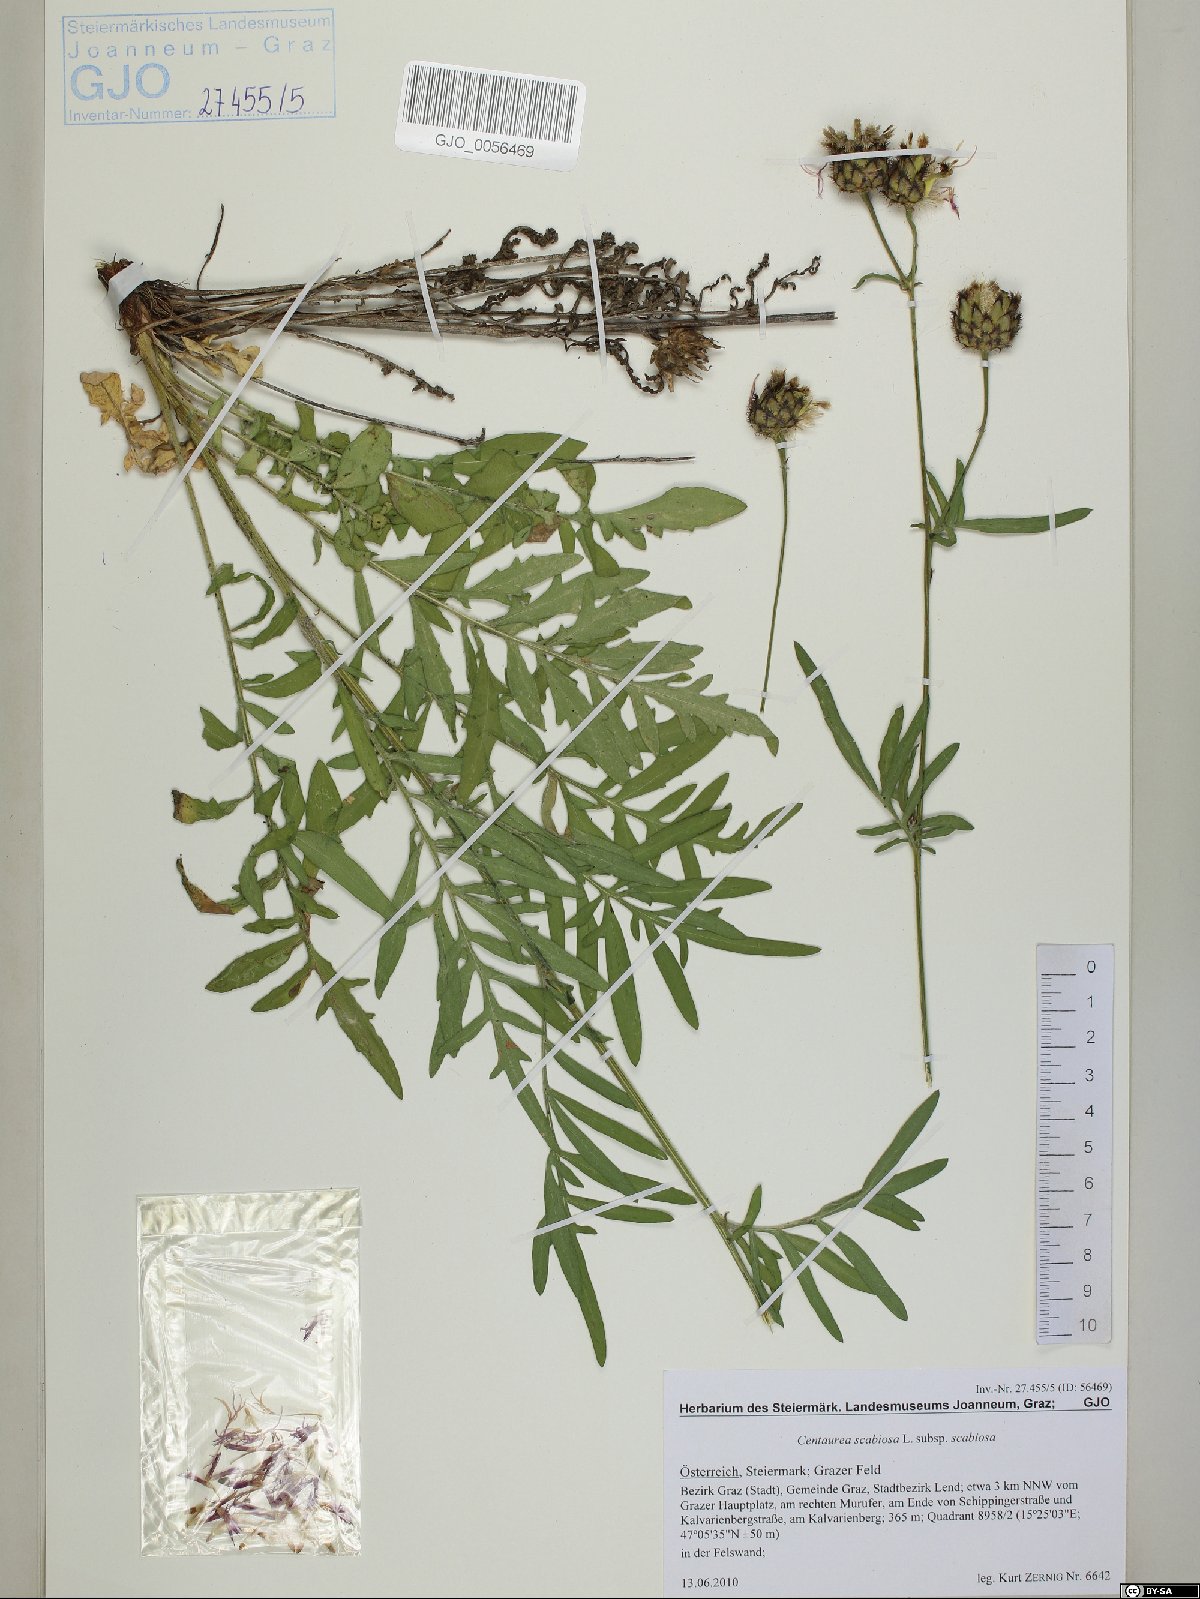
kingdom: Plantae
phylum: Tracheophyta
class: Magnoliopsida
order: Asterales
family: Asteraceae
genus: Centaurea
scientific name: Centaurea scabiosa
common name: Greater knapweed
